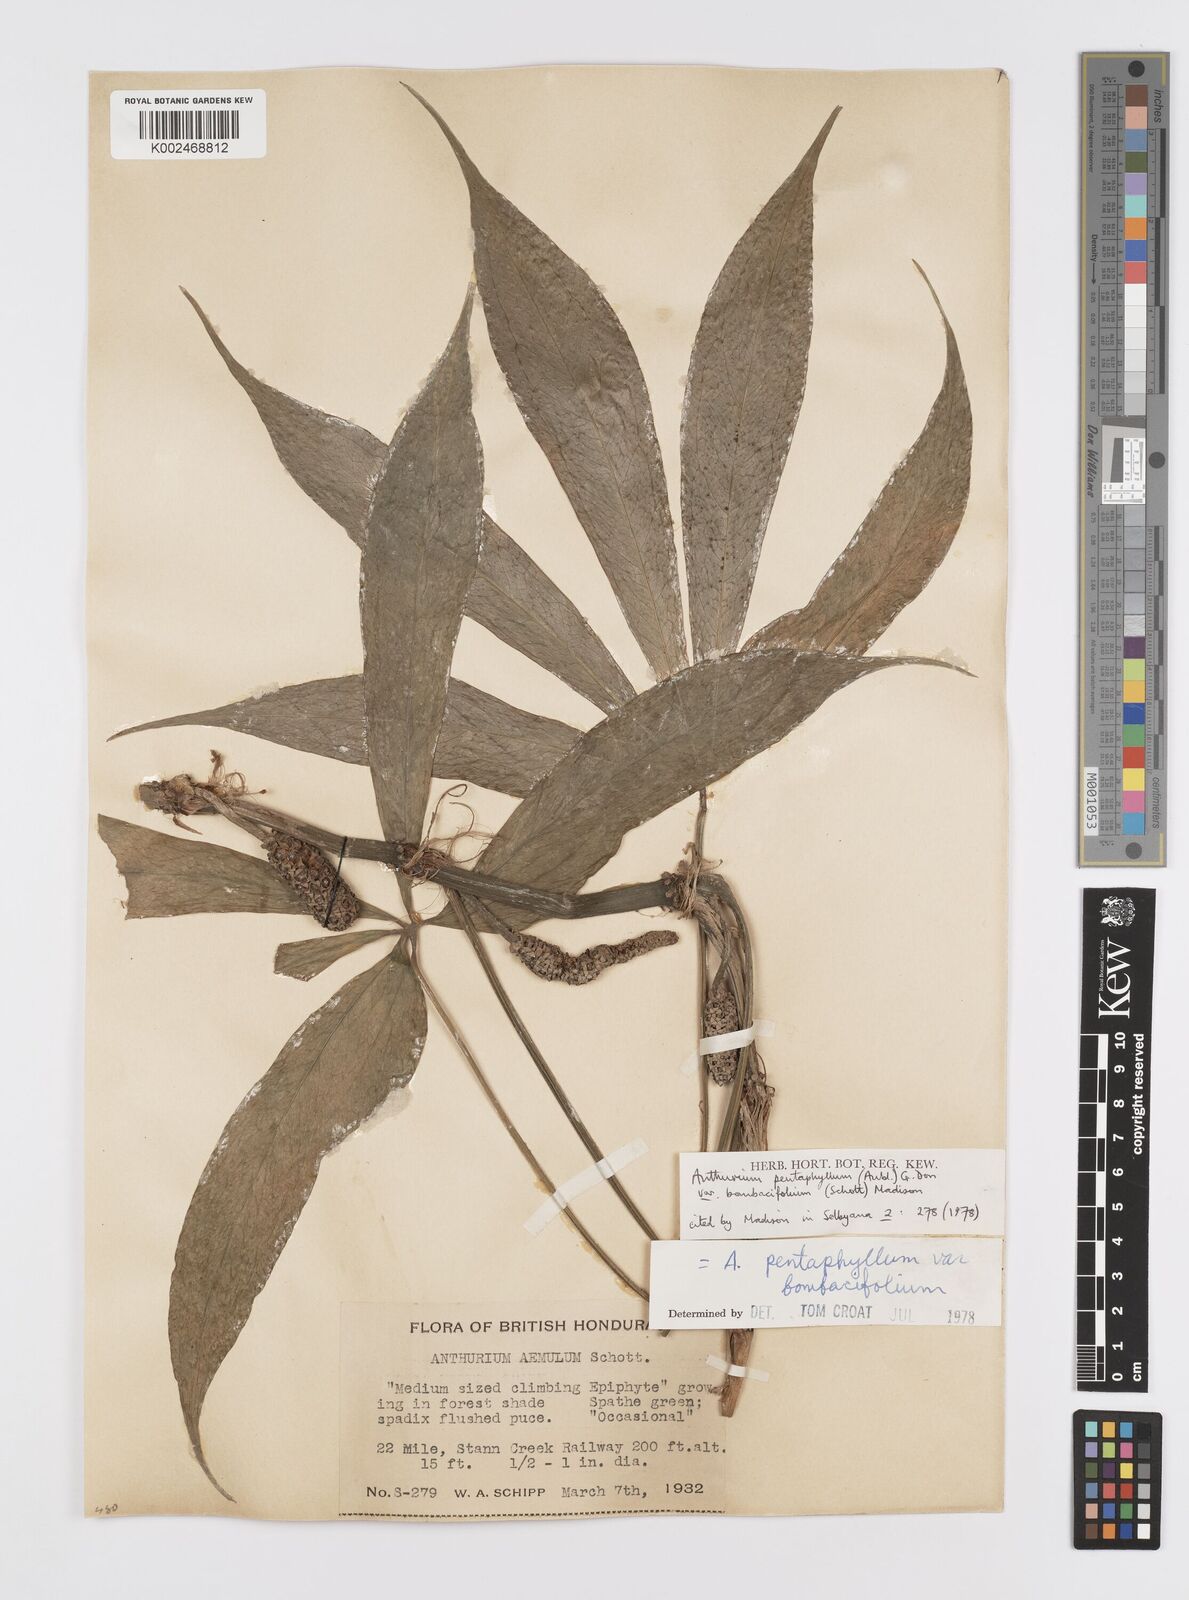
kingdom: Plantae
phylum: Tracheophyta
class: Liliopsida
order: Alismatales
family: Araceae
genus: Anthurium
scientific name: Anthurium pentaphyllum
